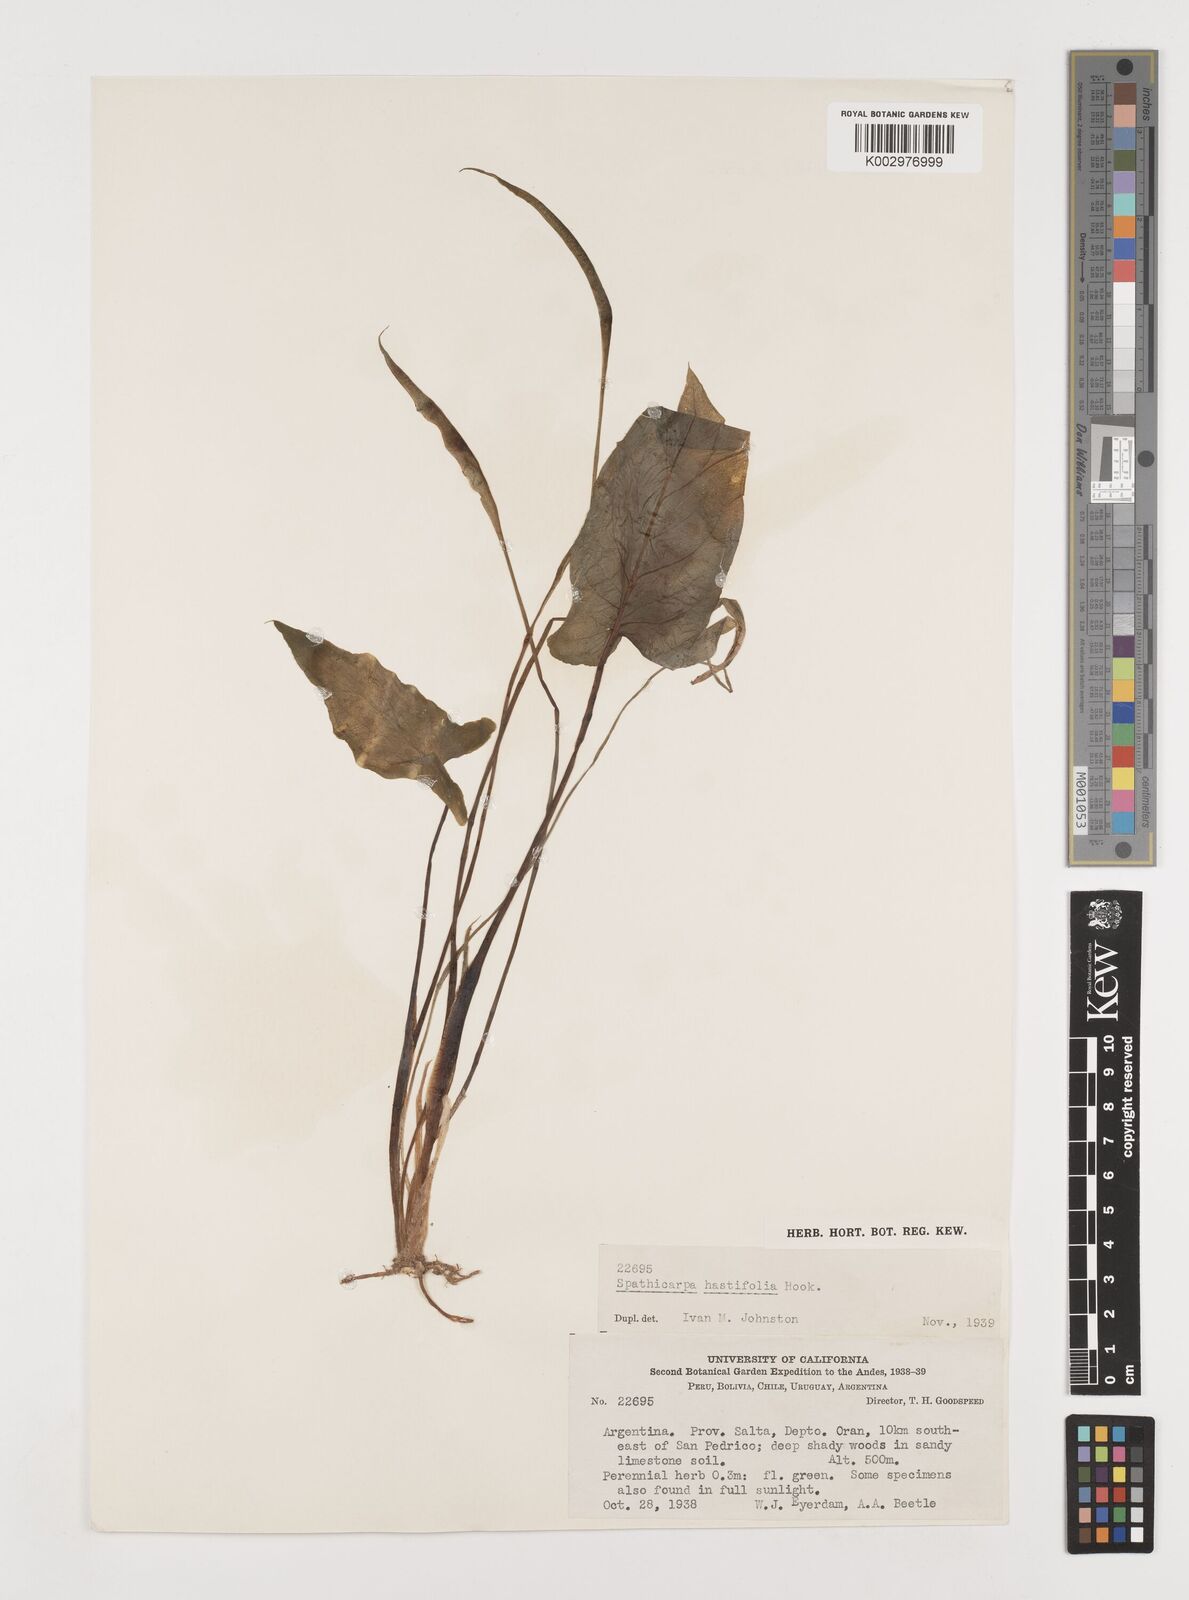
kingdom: Plantae
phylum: Tracheophyta
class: Liliopsida
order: Alismatales
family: Araceae
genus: Spathicarpa
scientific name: Spathicarpa hastifolia
